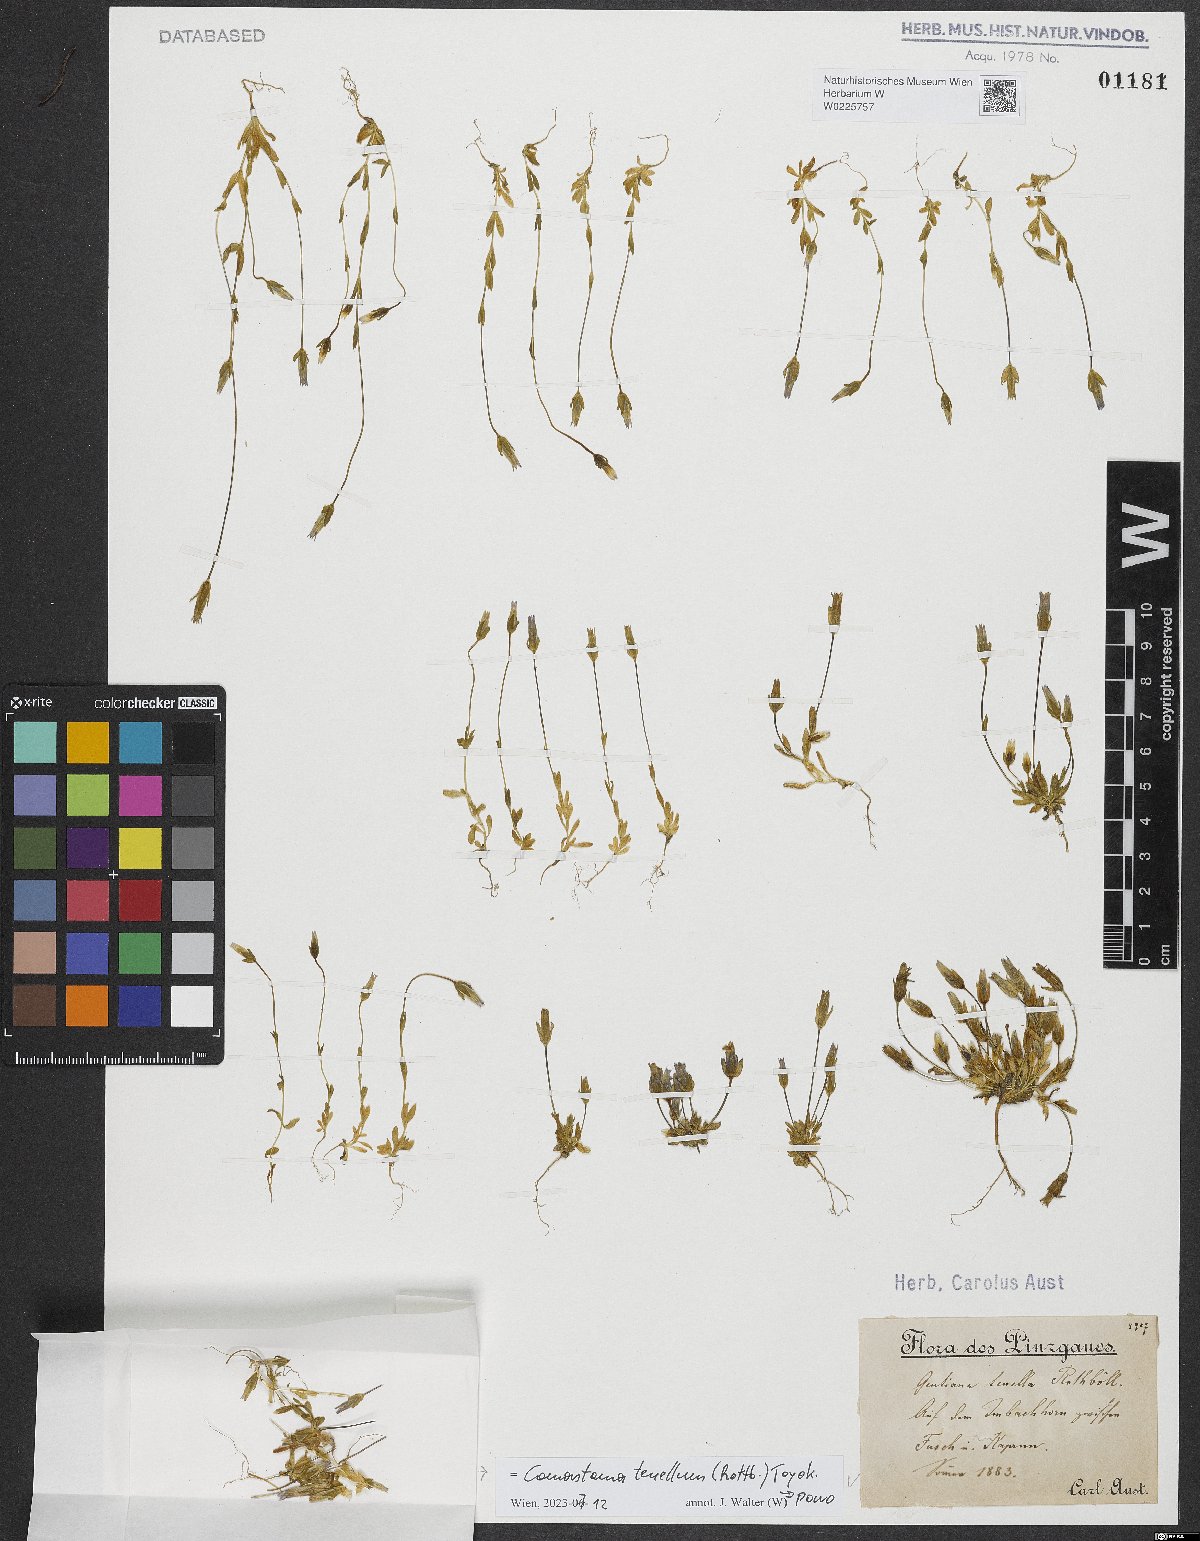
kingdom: Plantae
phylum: Tracheophyta
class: Magnoliopsida
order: Gentianales
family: Gentianaceae
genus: Comastoma
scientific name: Comastoma tenellum
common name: Dane's dwarf gentian
